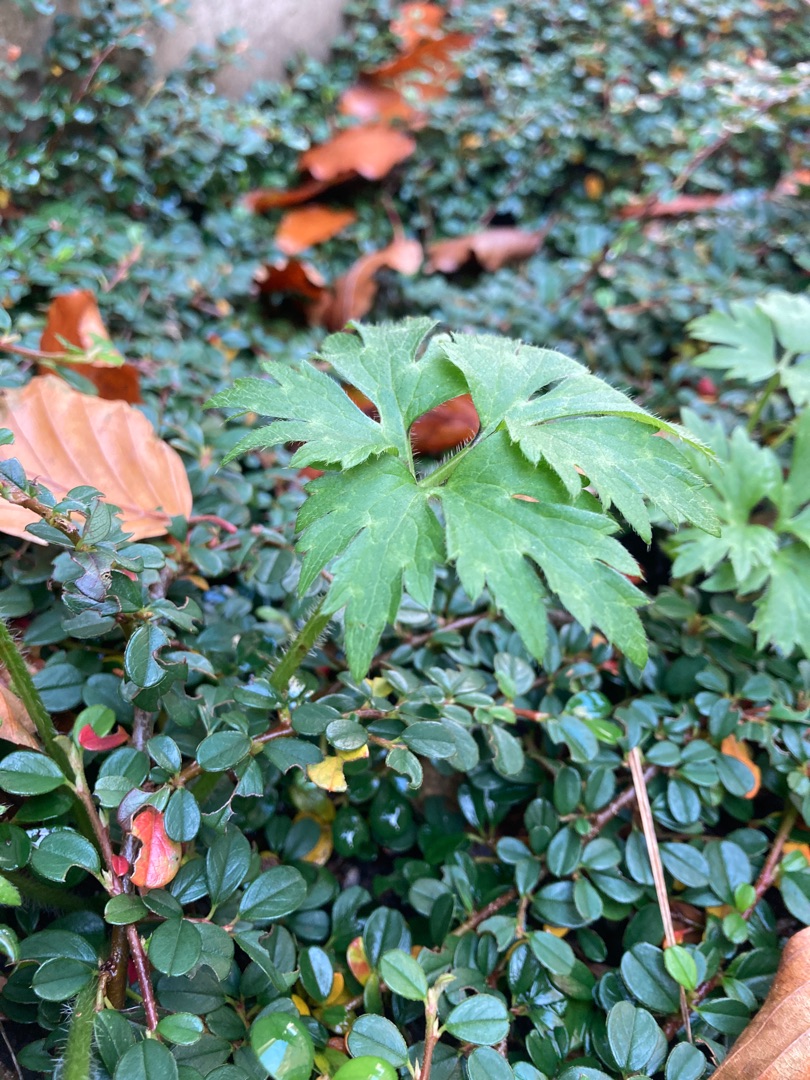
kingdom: Plantae
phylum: Tracheophyta
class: Magnoliopsida
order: Ranunculales
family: Ranunculaceae
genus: Ranunculus
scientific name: Ranunculus repens
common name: Lav ranunkel
